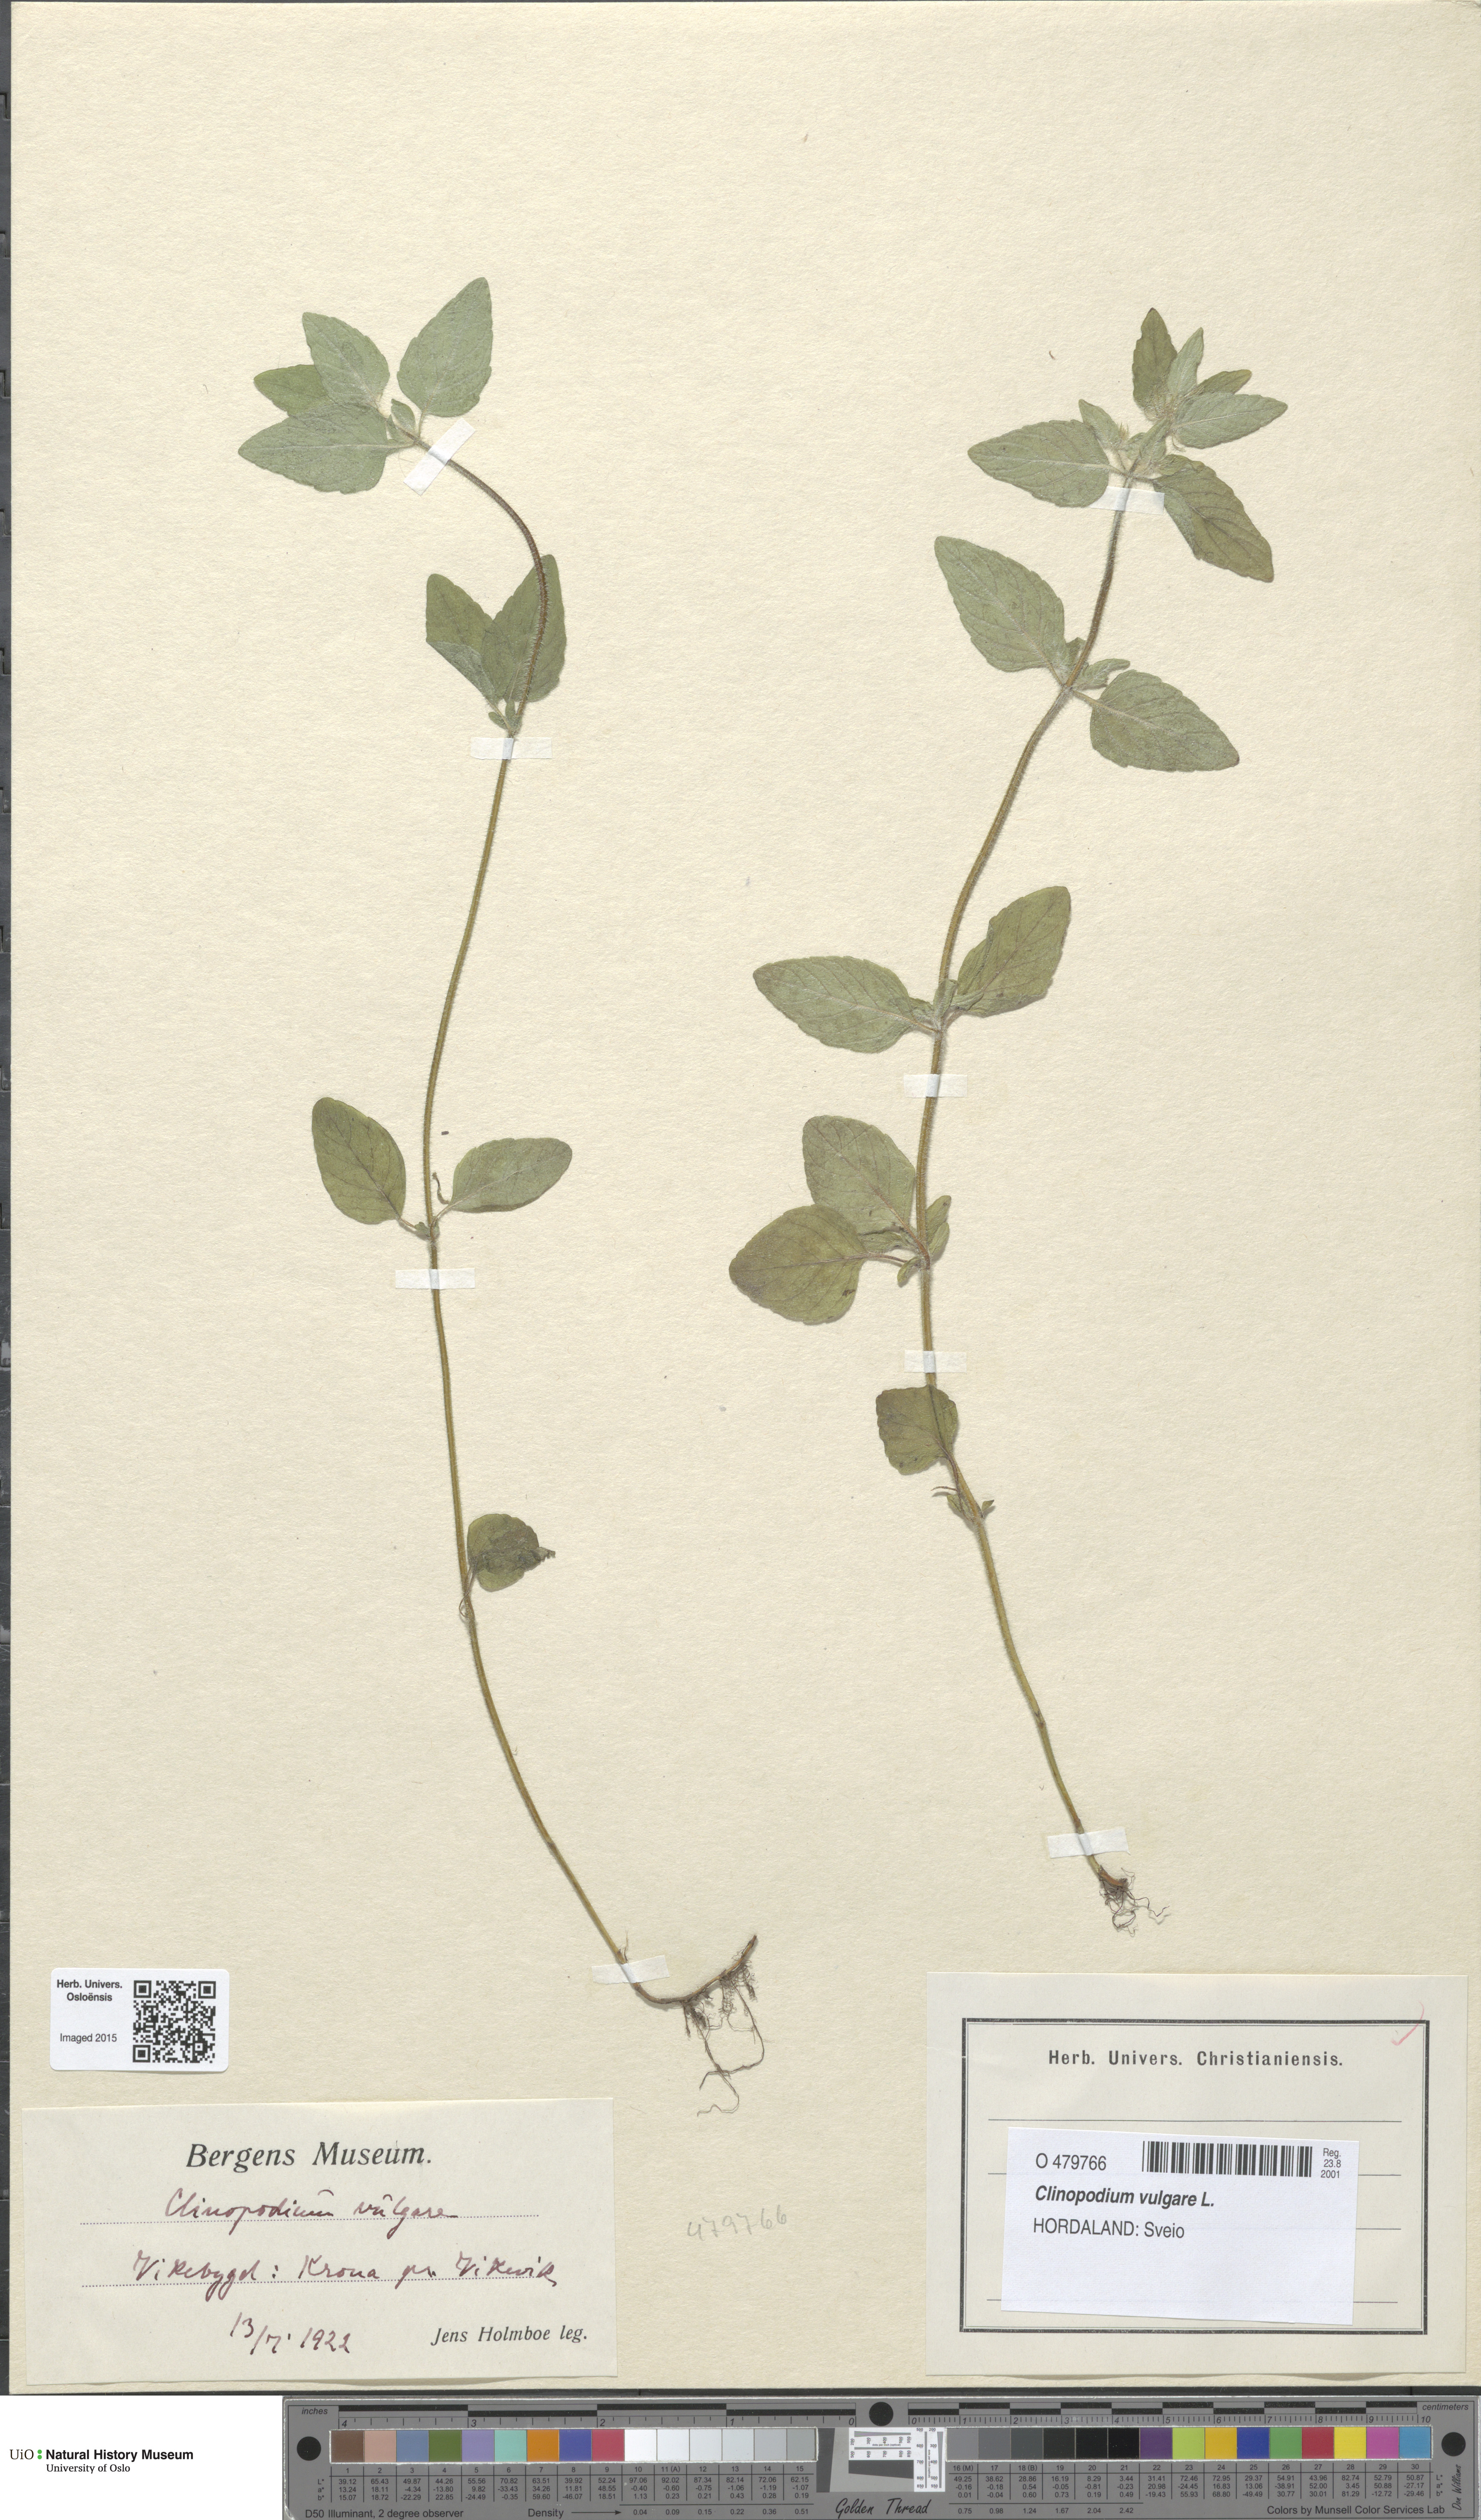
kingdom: Plantae
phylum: Tracheophyta
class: Magnoliopsida
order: Lamiales
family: Lamiaceae
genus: Clinopodium
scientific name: Clinopodium vulgare
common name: Wild basil
